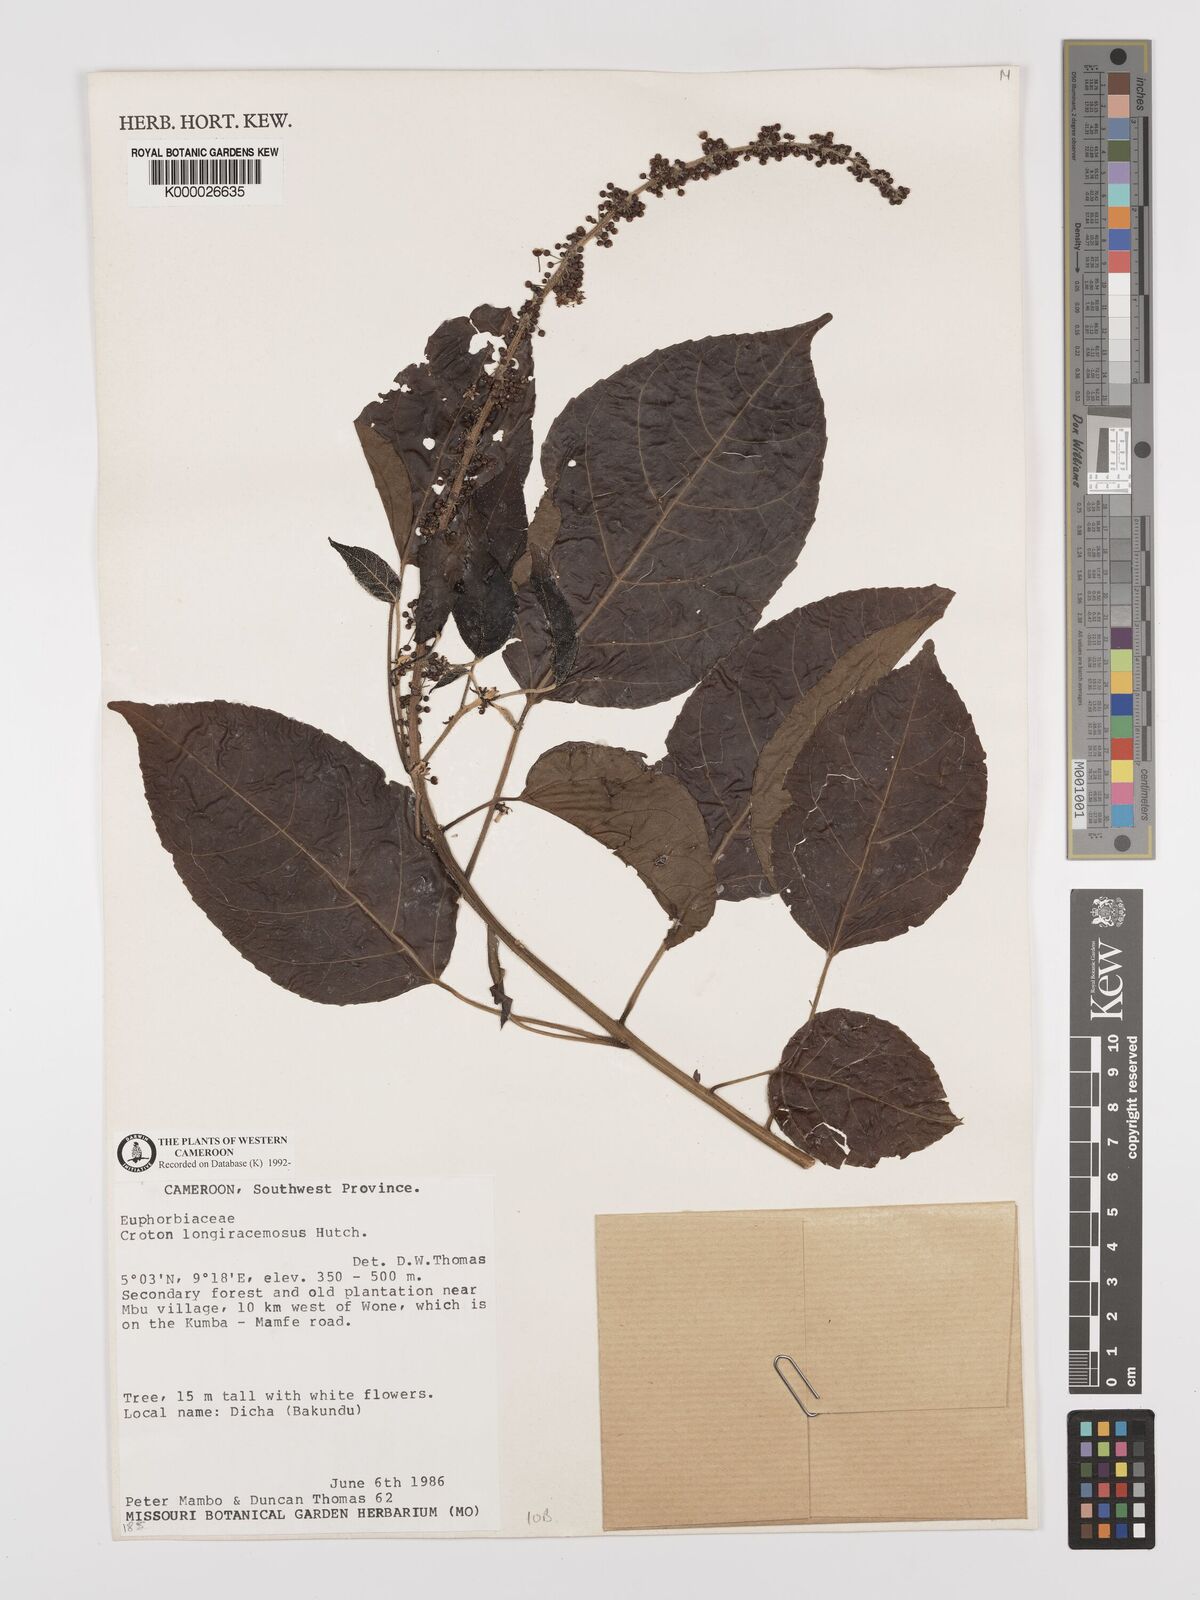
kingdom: Plantae
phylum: Tracheophyta
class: Magnoliopsida
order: Malpighiales
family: Euphorbiaceae
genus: Croton
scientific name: Croton longiracemosus
